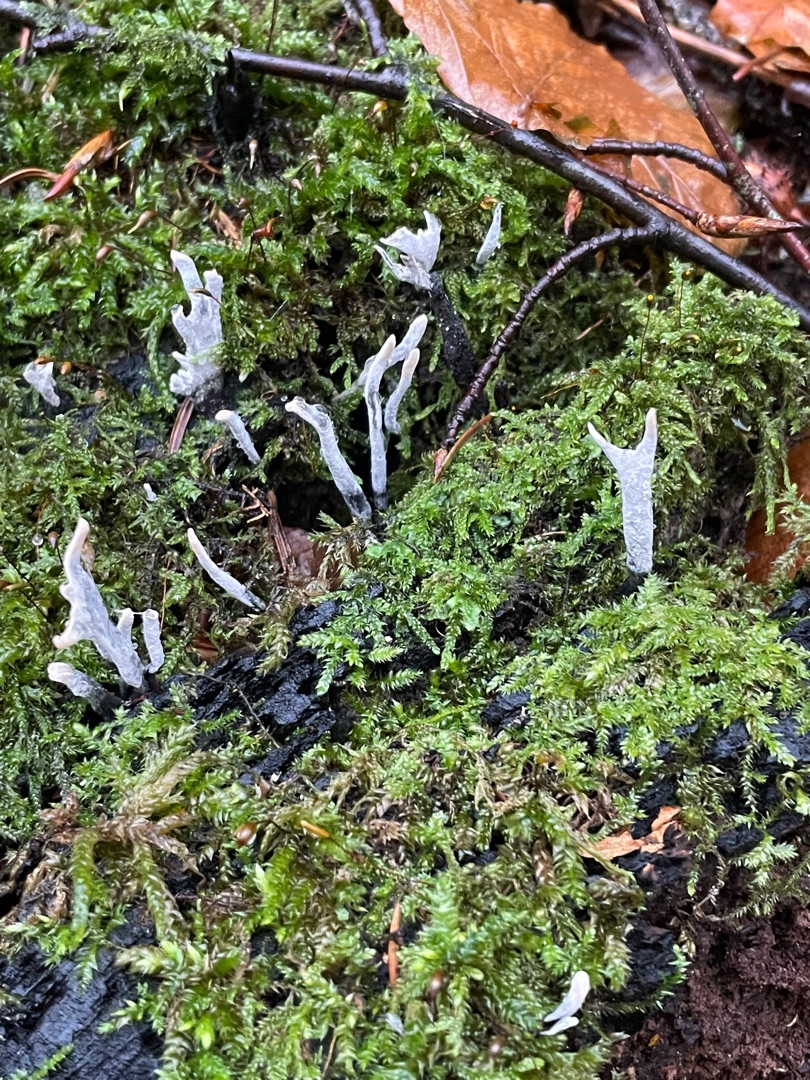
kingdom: Fungi
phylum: Ascomycota
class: Sordariomycetes
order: Xylariales
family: Xylariaceae
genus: Xylaria
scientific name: Xylaria hypoxylon
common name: Grenet stødsvamp
